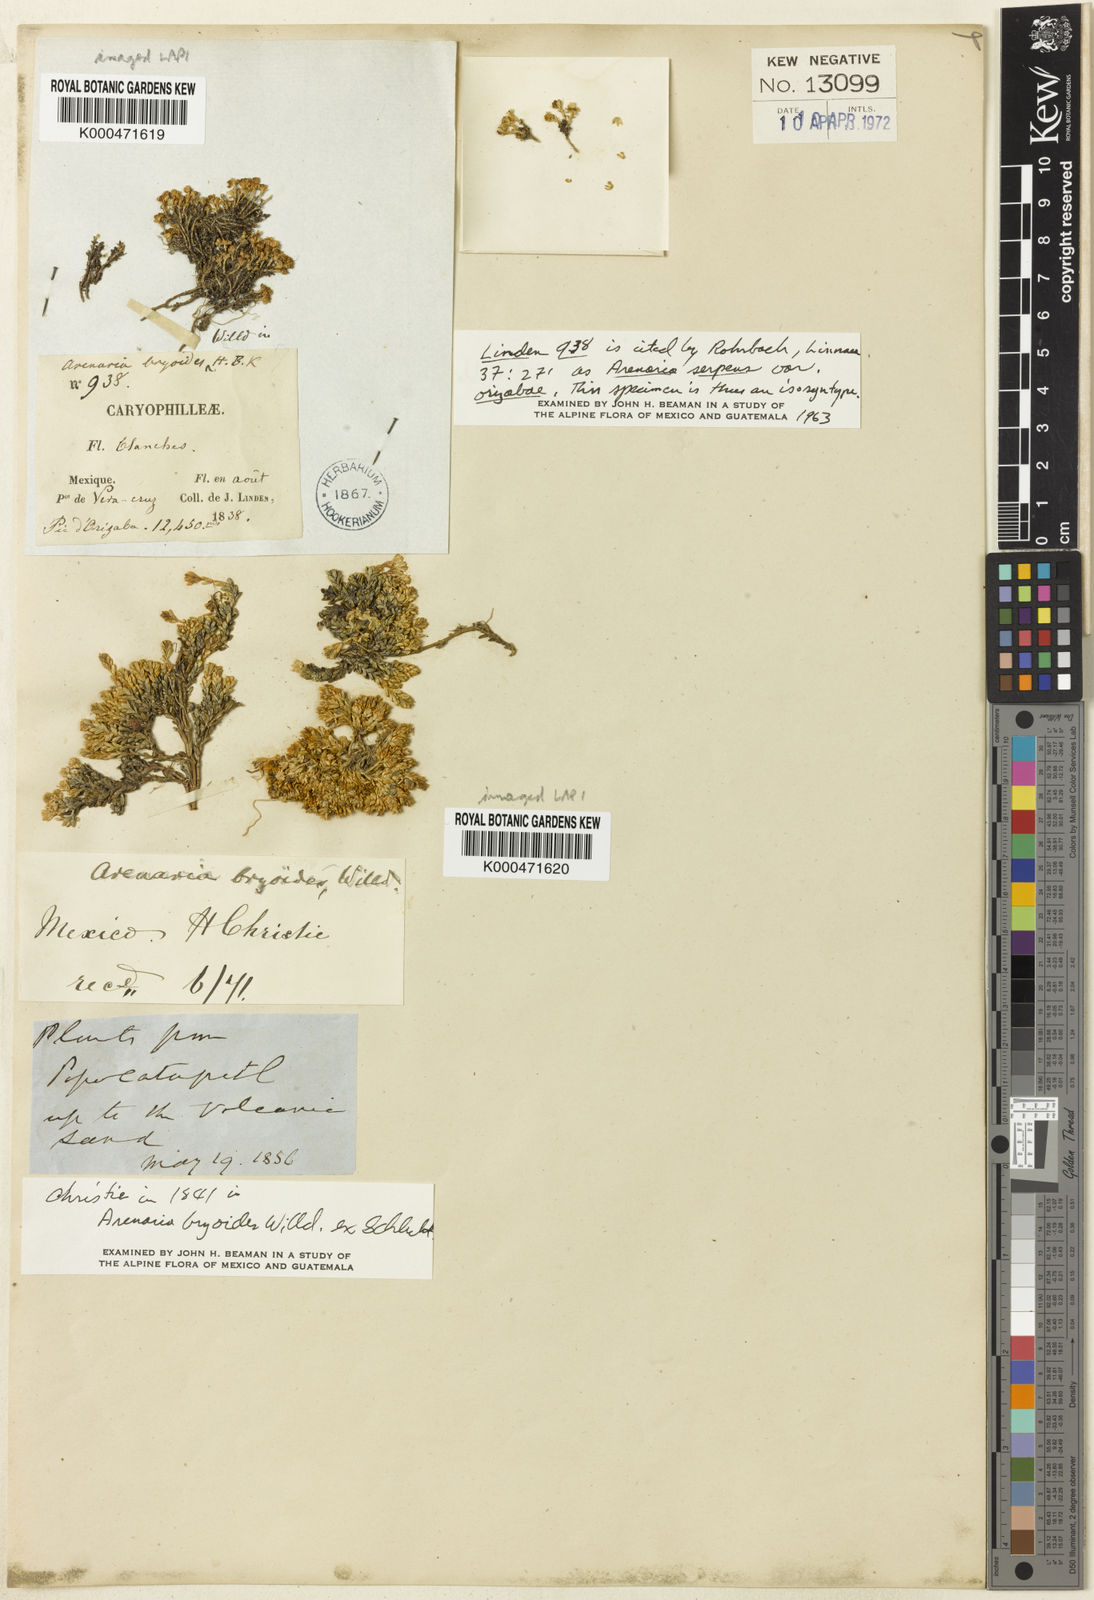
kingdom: Plantae
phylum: Tracheophyta
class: Magnoliopsida
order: Caryophyllales
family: Caryophyllaceae
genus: Arenaria
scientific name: Arenaria digyna
